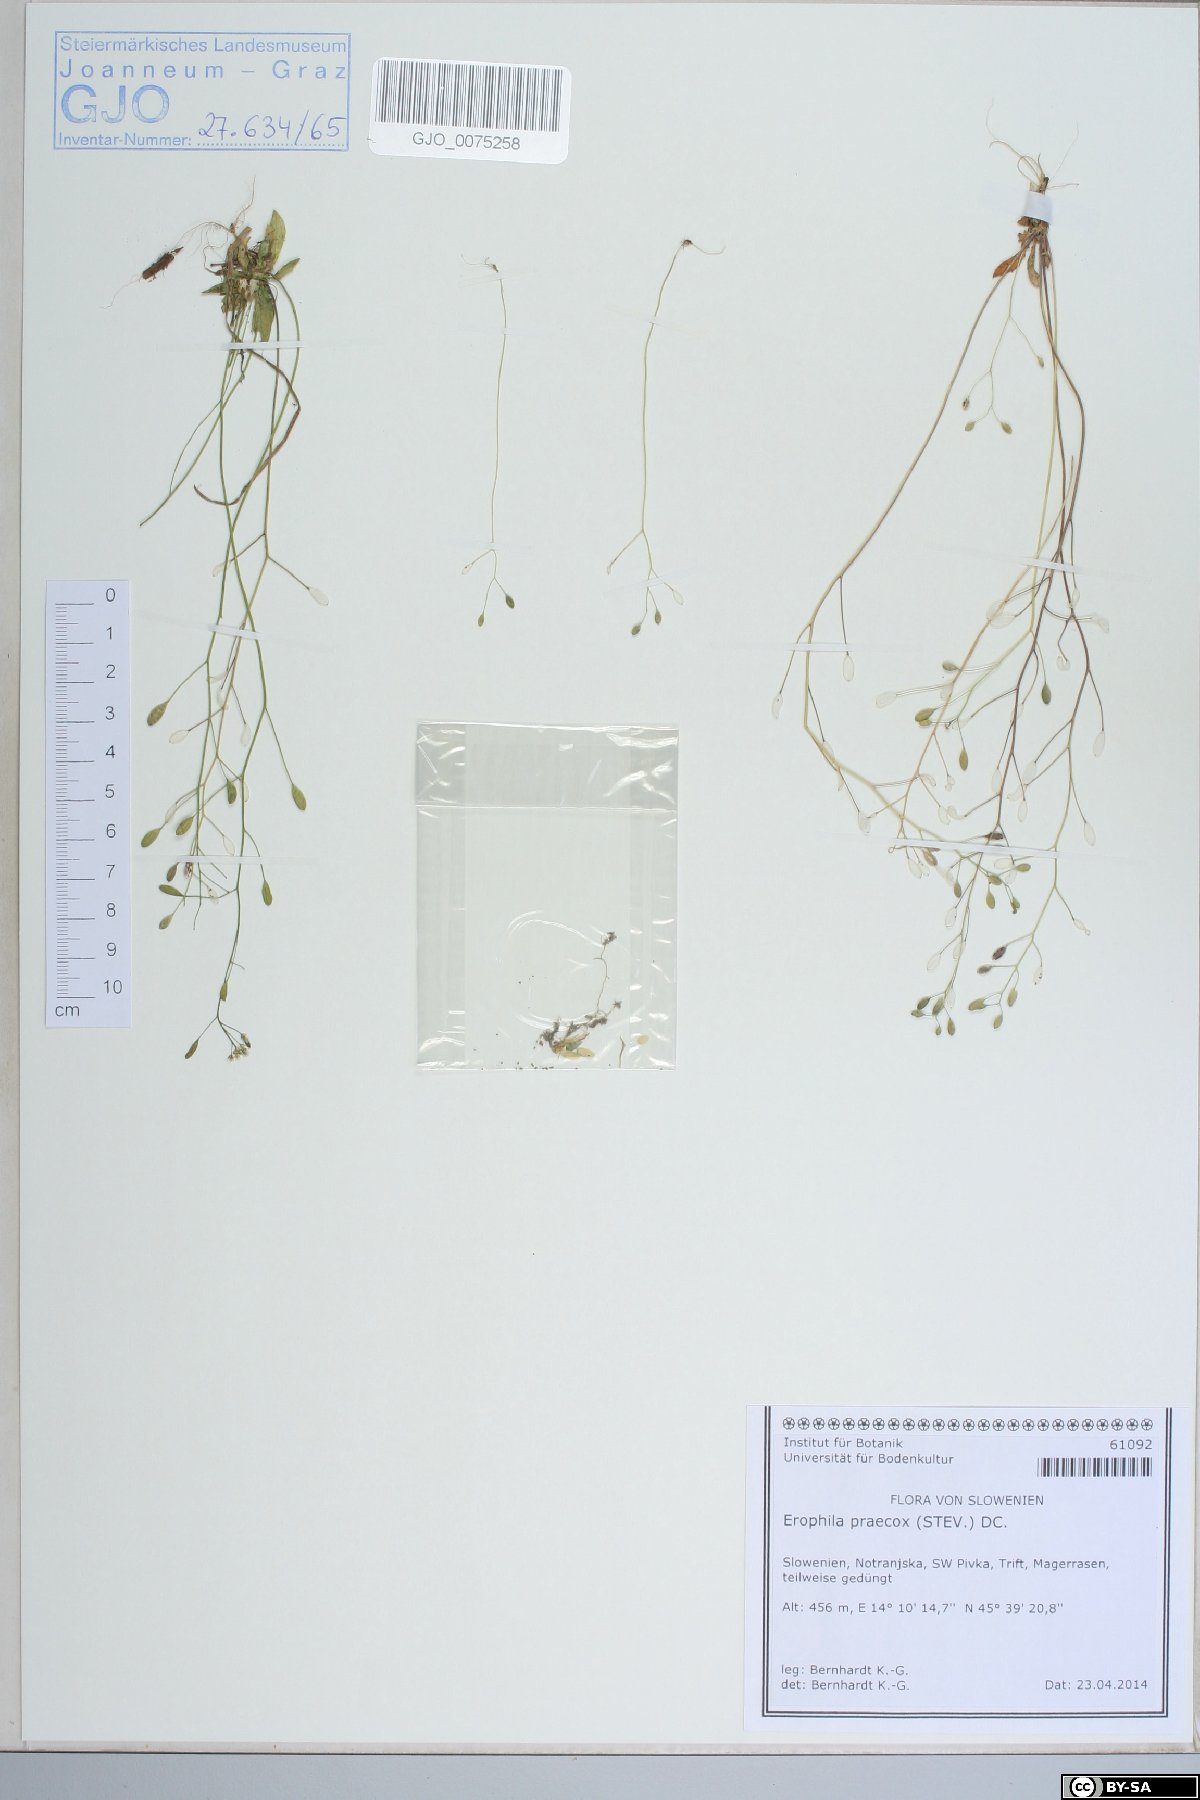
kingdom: Plantae
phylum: Tracheophyta
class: Magnoliopsida
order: Brassicales
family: Brassicaceae
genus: Draba
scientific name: Draba verna
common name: Spring draba
